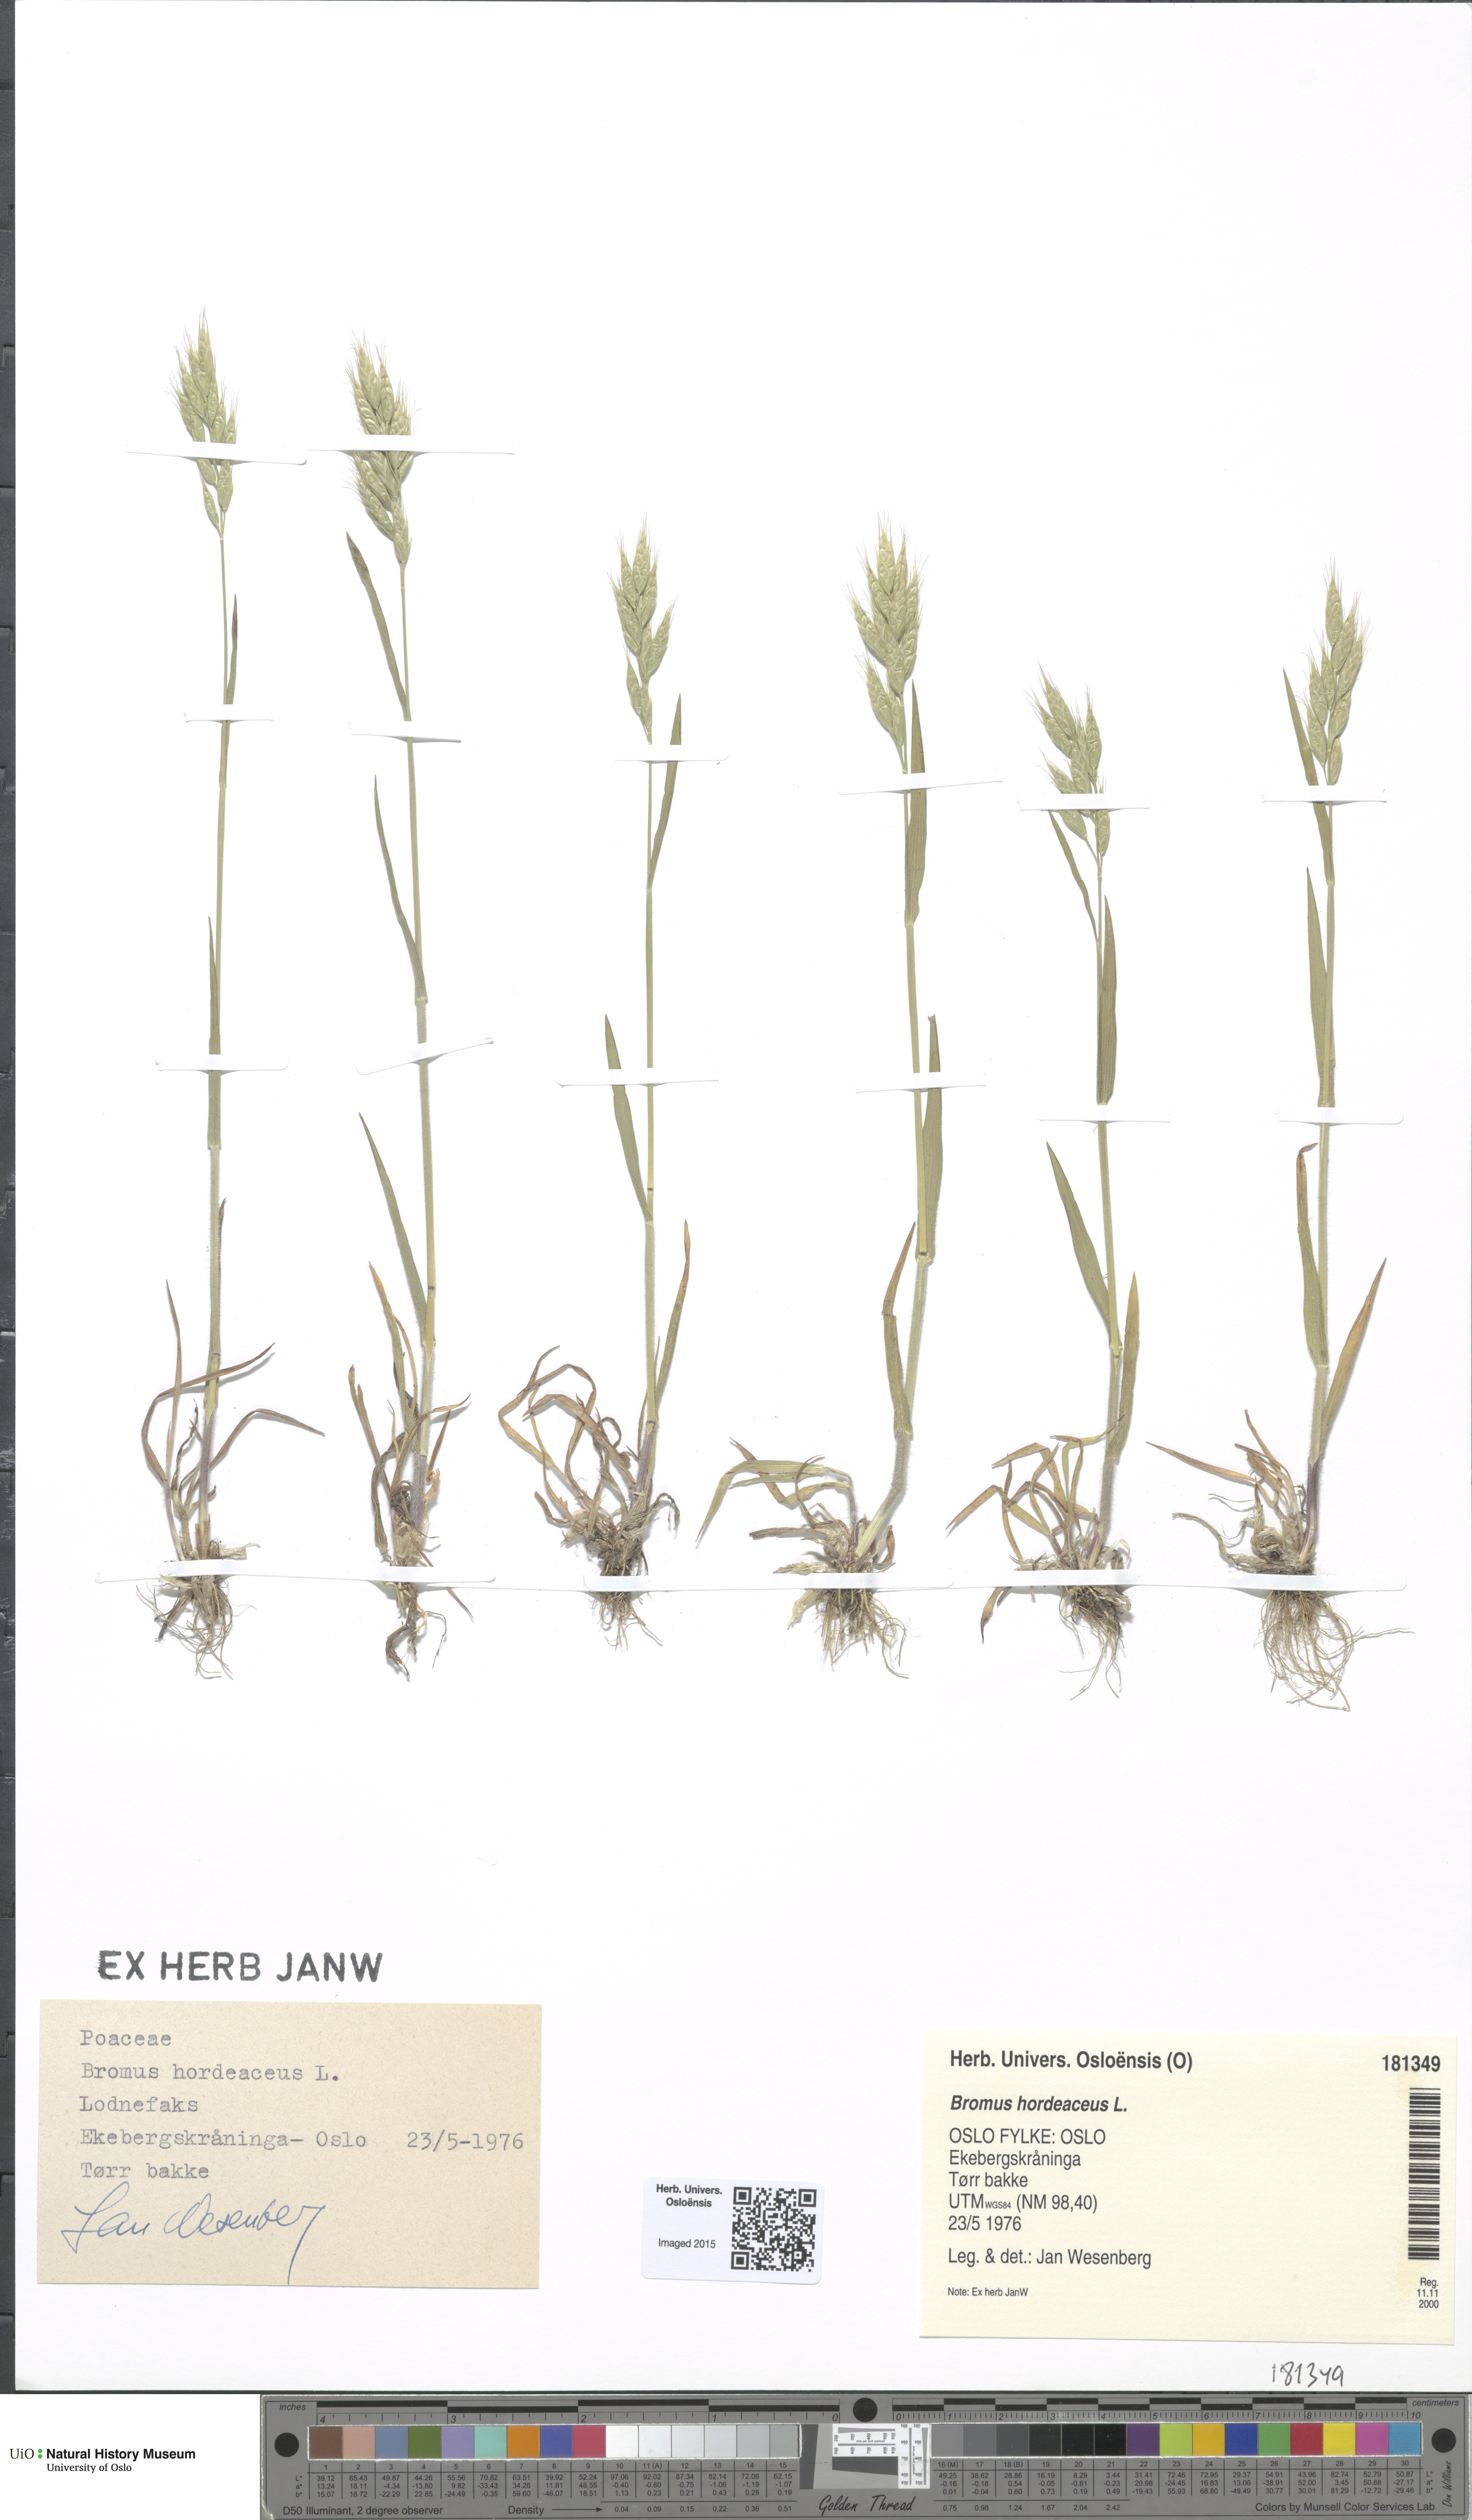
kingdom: Plantae
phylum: Tracheophyta
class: Liliopsida
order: Poales
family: Poaceae
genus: Bromus
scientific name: Bromus hordeaceus
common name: Soft brome
